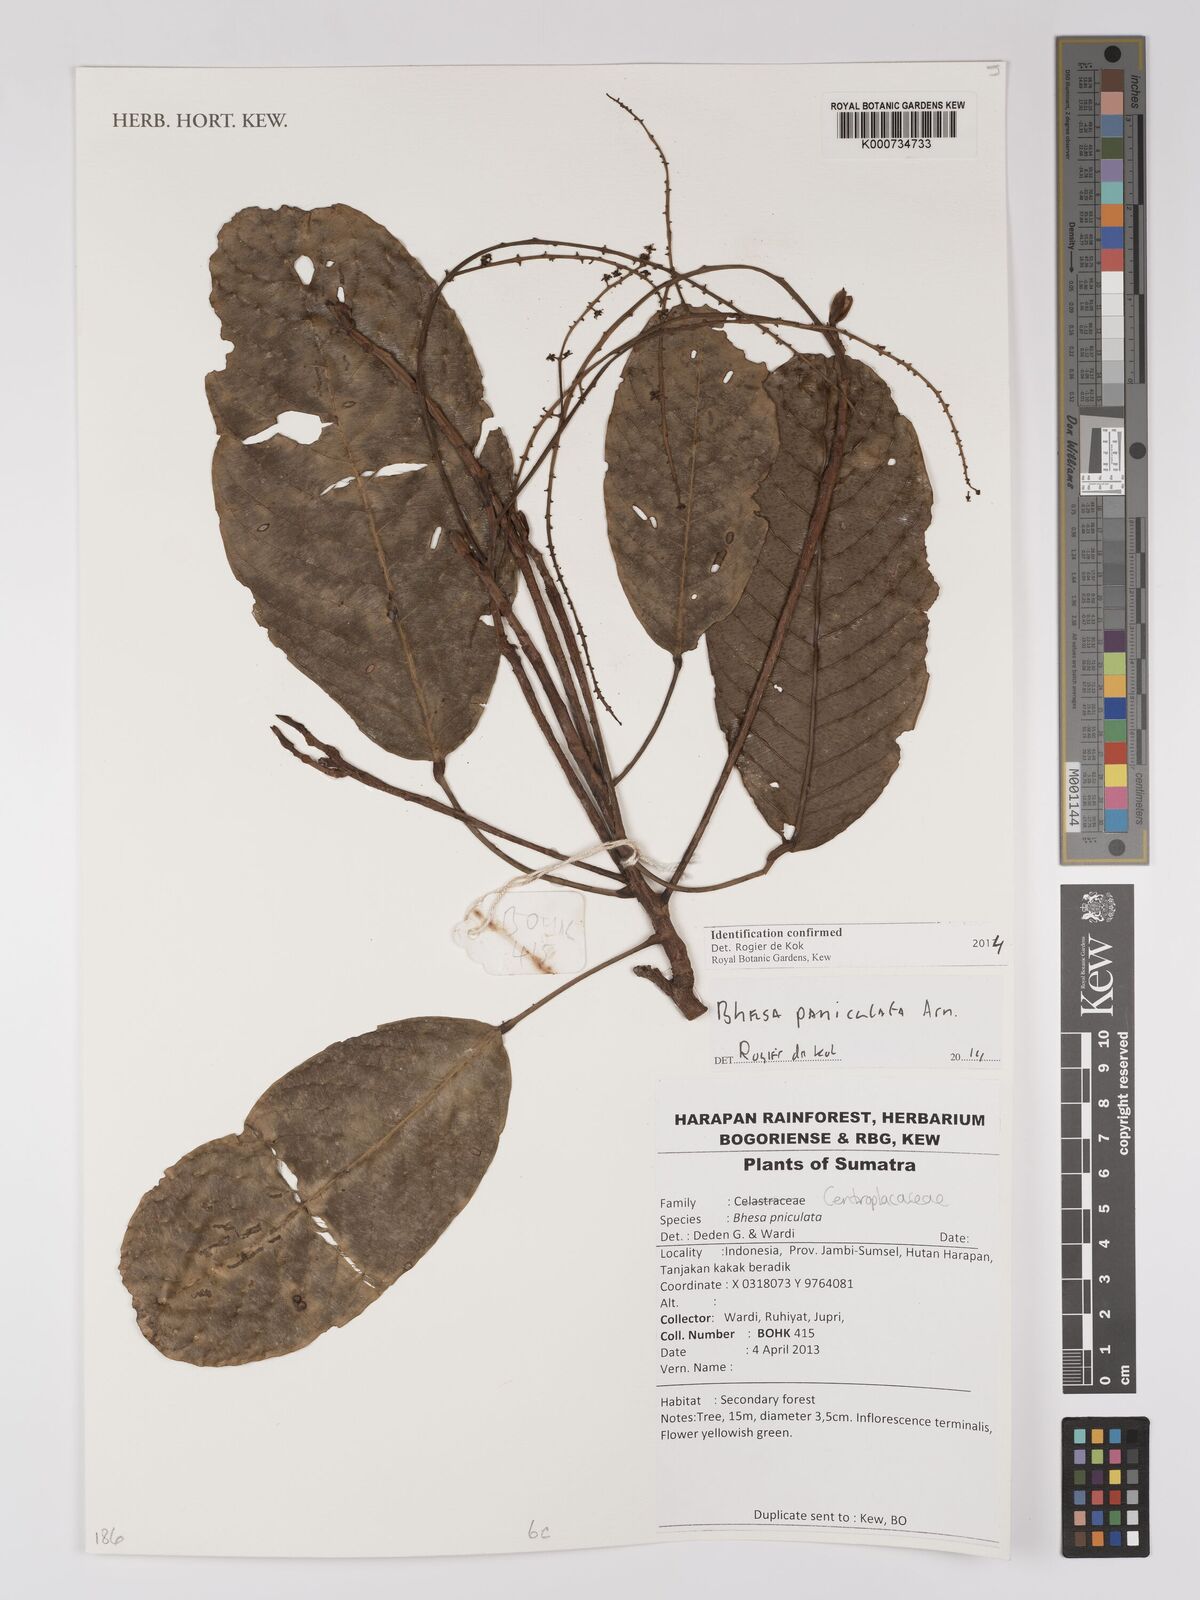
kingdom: Plantae
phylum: Tracheophyta
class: Magnoliopsida
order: Malpighiales
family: Centroplacaceae
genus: Bhesa
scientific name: Bhesa paniculata
